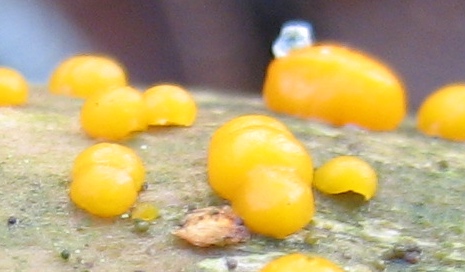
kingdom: Fungi
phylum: Basidiomycota
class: Dacrymycetes
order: Dacrymycetales
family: Dacrymycetaceae
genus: Dacrymyces
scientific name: Dacrymyces
